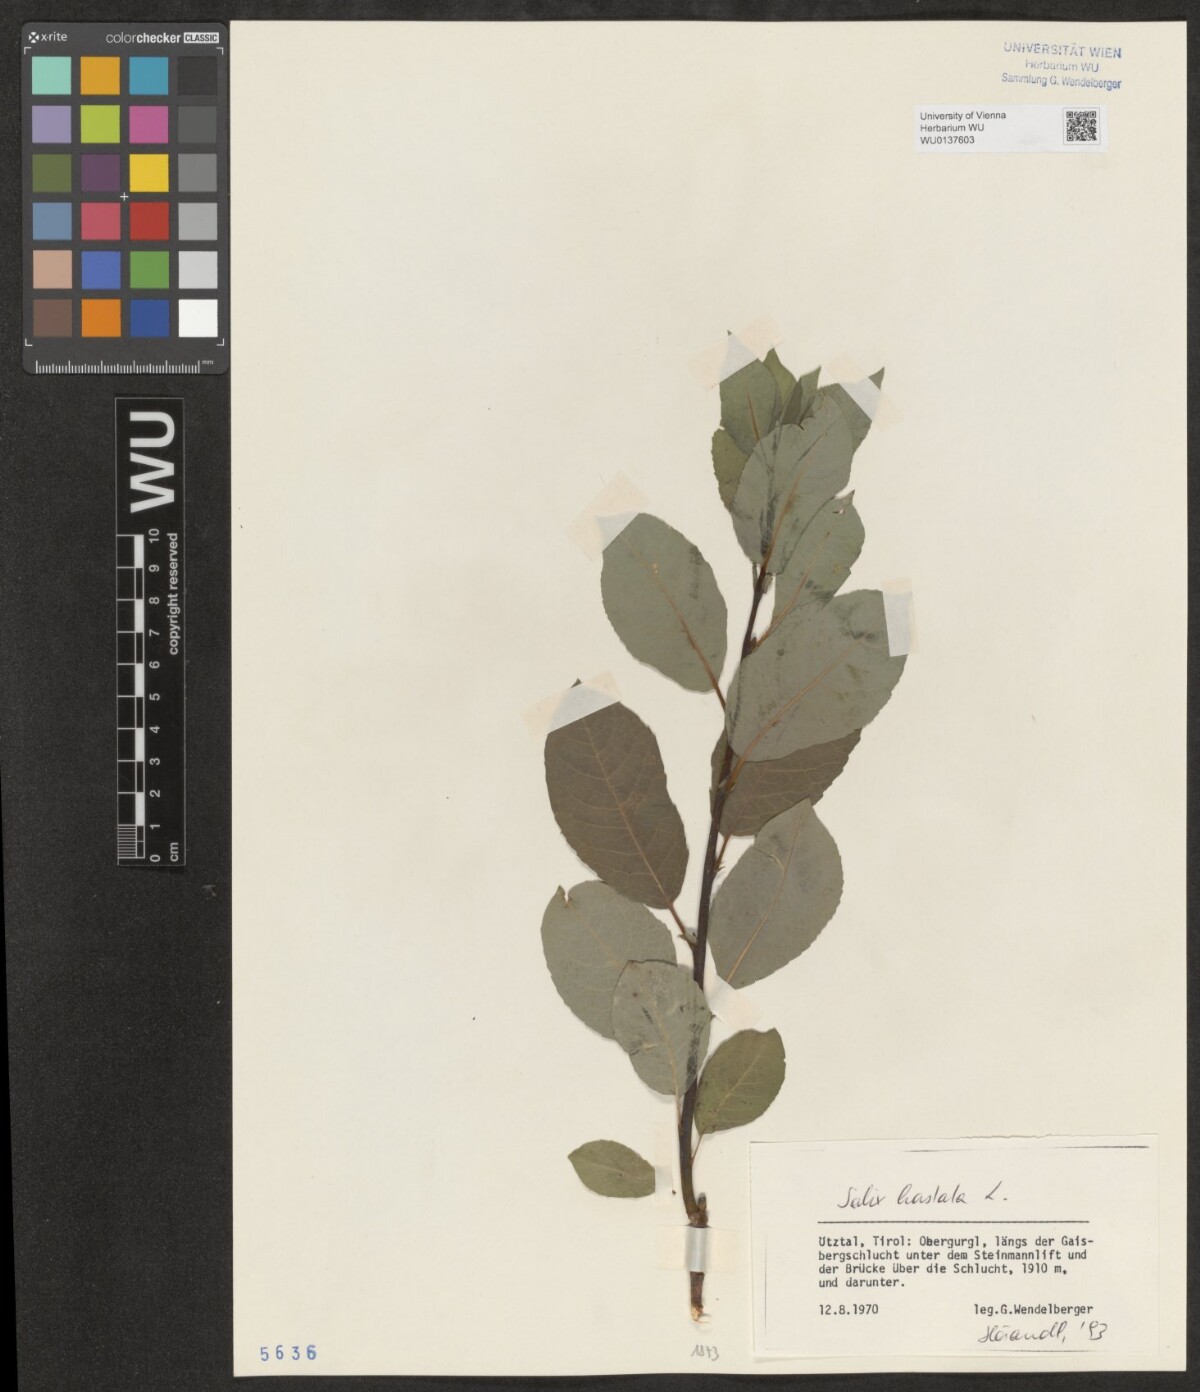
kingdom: Plantae
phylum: Tracheophyta
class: Magnoliopsida
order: Malpighiales
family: Salicaceae
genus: Salix
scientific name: Salix hastata
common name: Halberd willow
